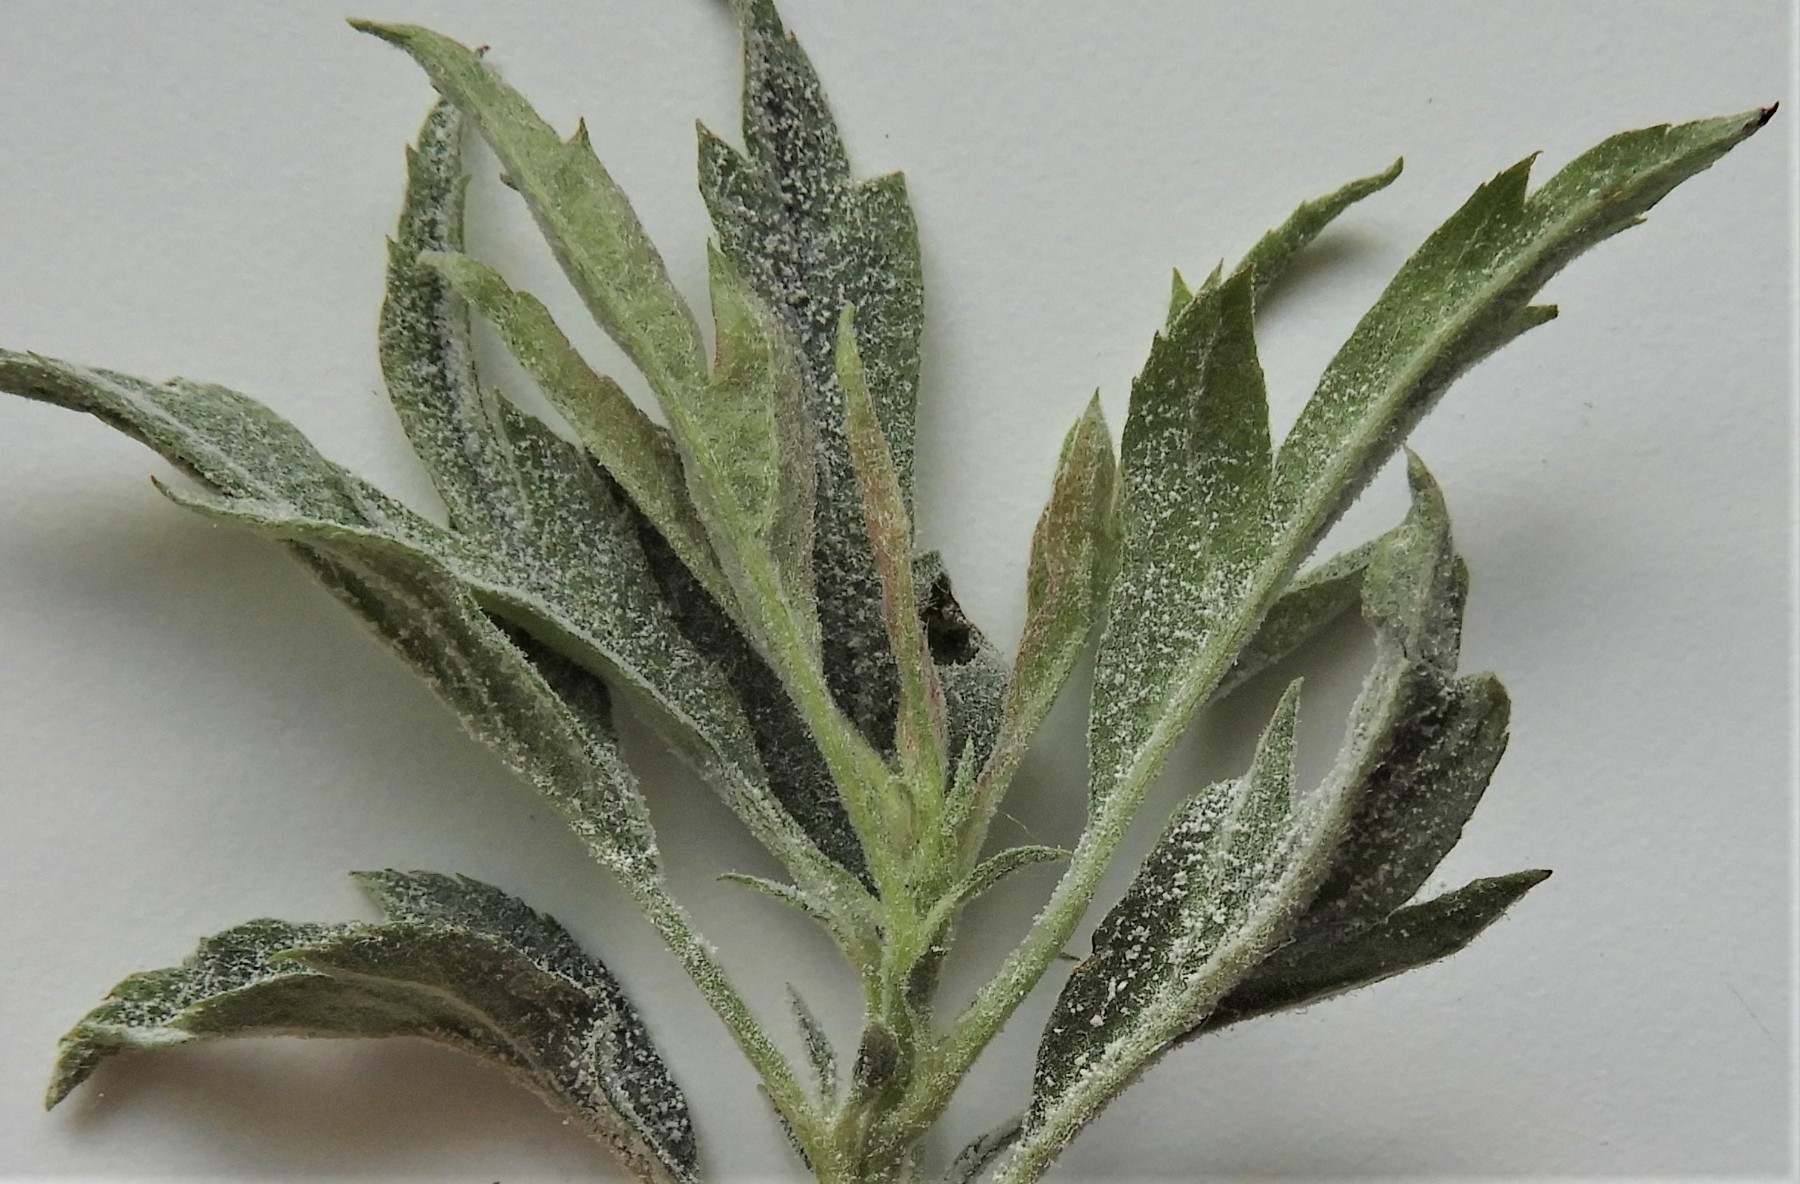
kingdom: Fungi
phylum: Ascomycota
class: Leotiomycetes
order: Helotiales
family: Erysiphaceae
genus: Podosphaera
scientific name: Podosphaera clandestina
